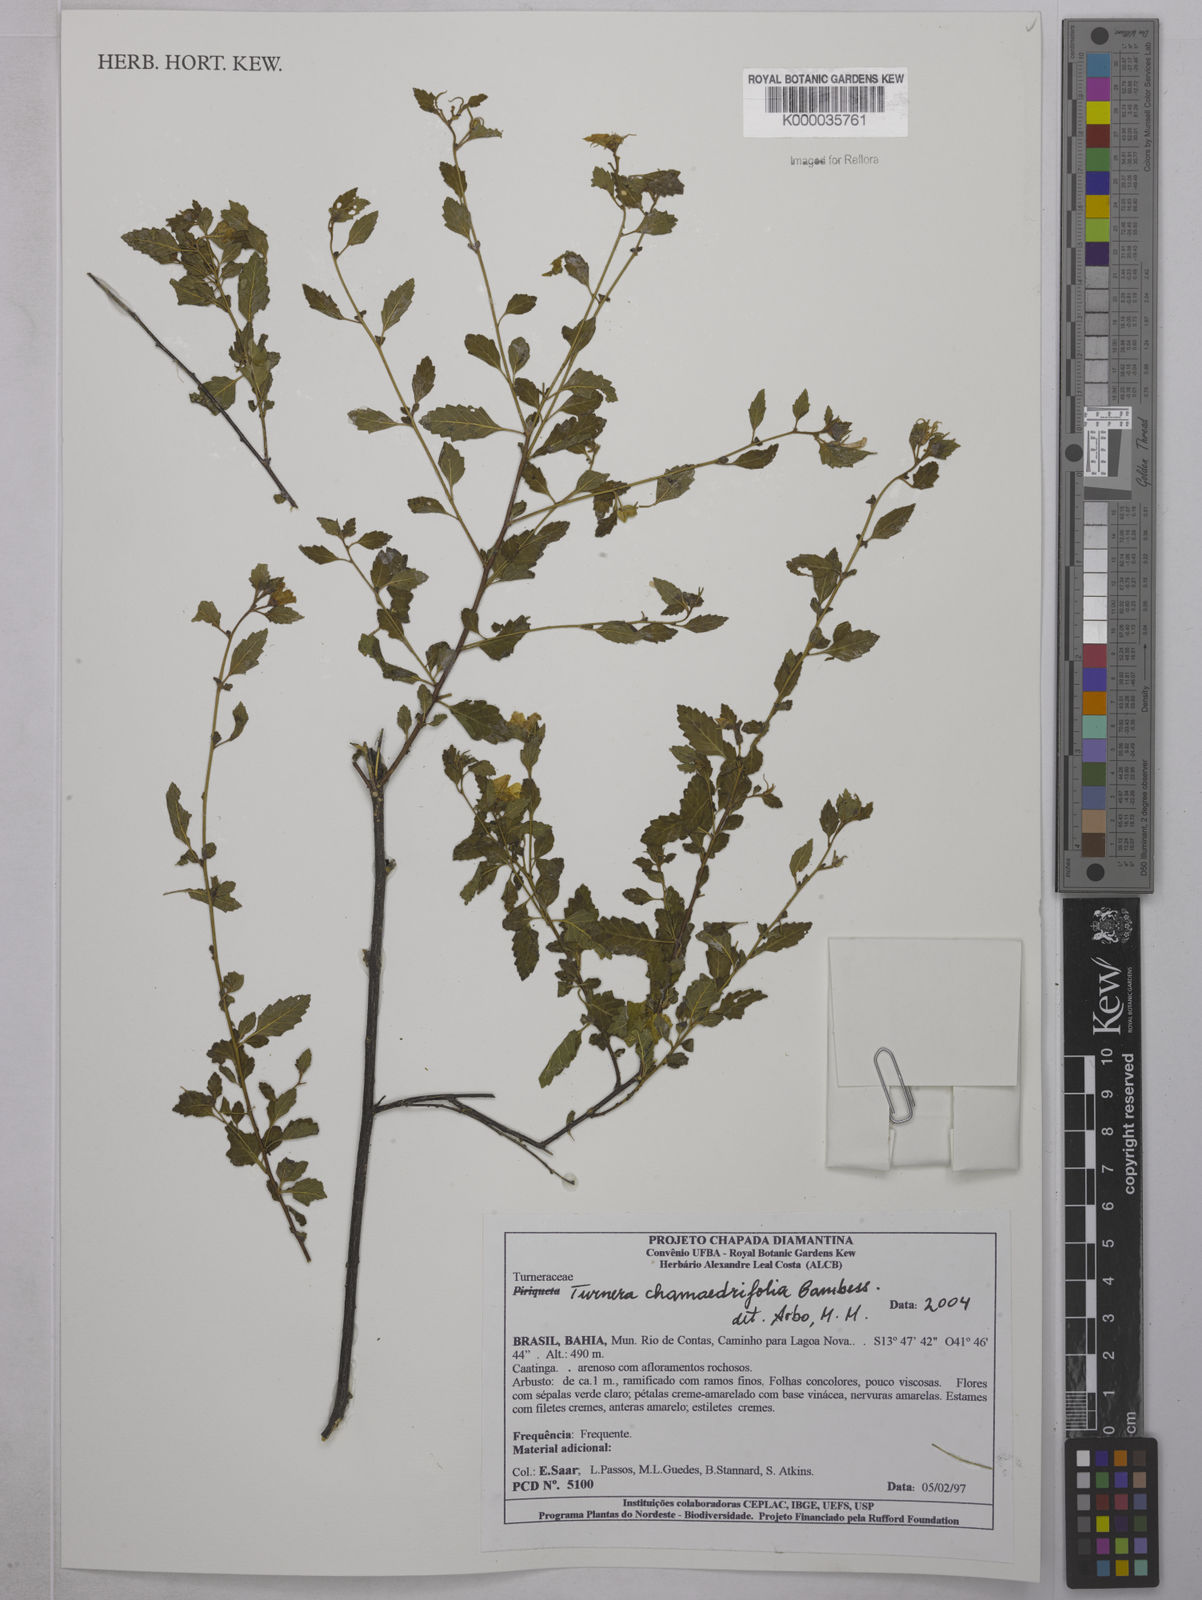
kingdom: Plantae
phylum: Tracheophyta
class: Magnoliopsida
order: Malpighiales
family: Turneraceae
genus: Turnera
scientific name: Turnera chamaedrifolia
